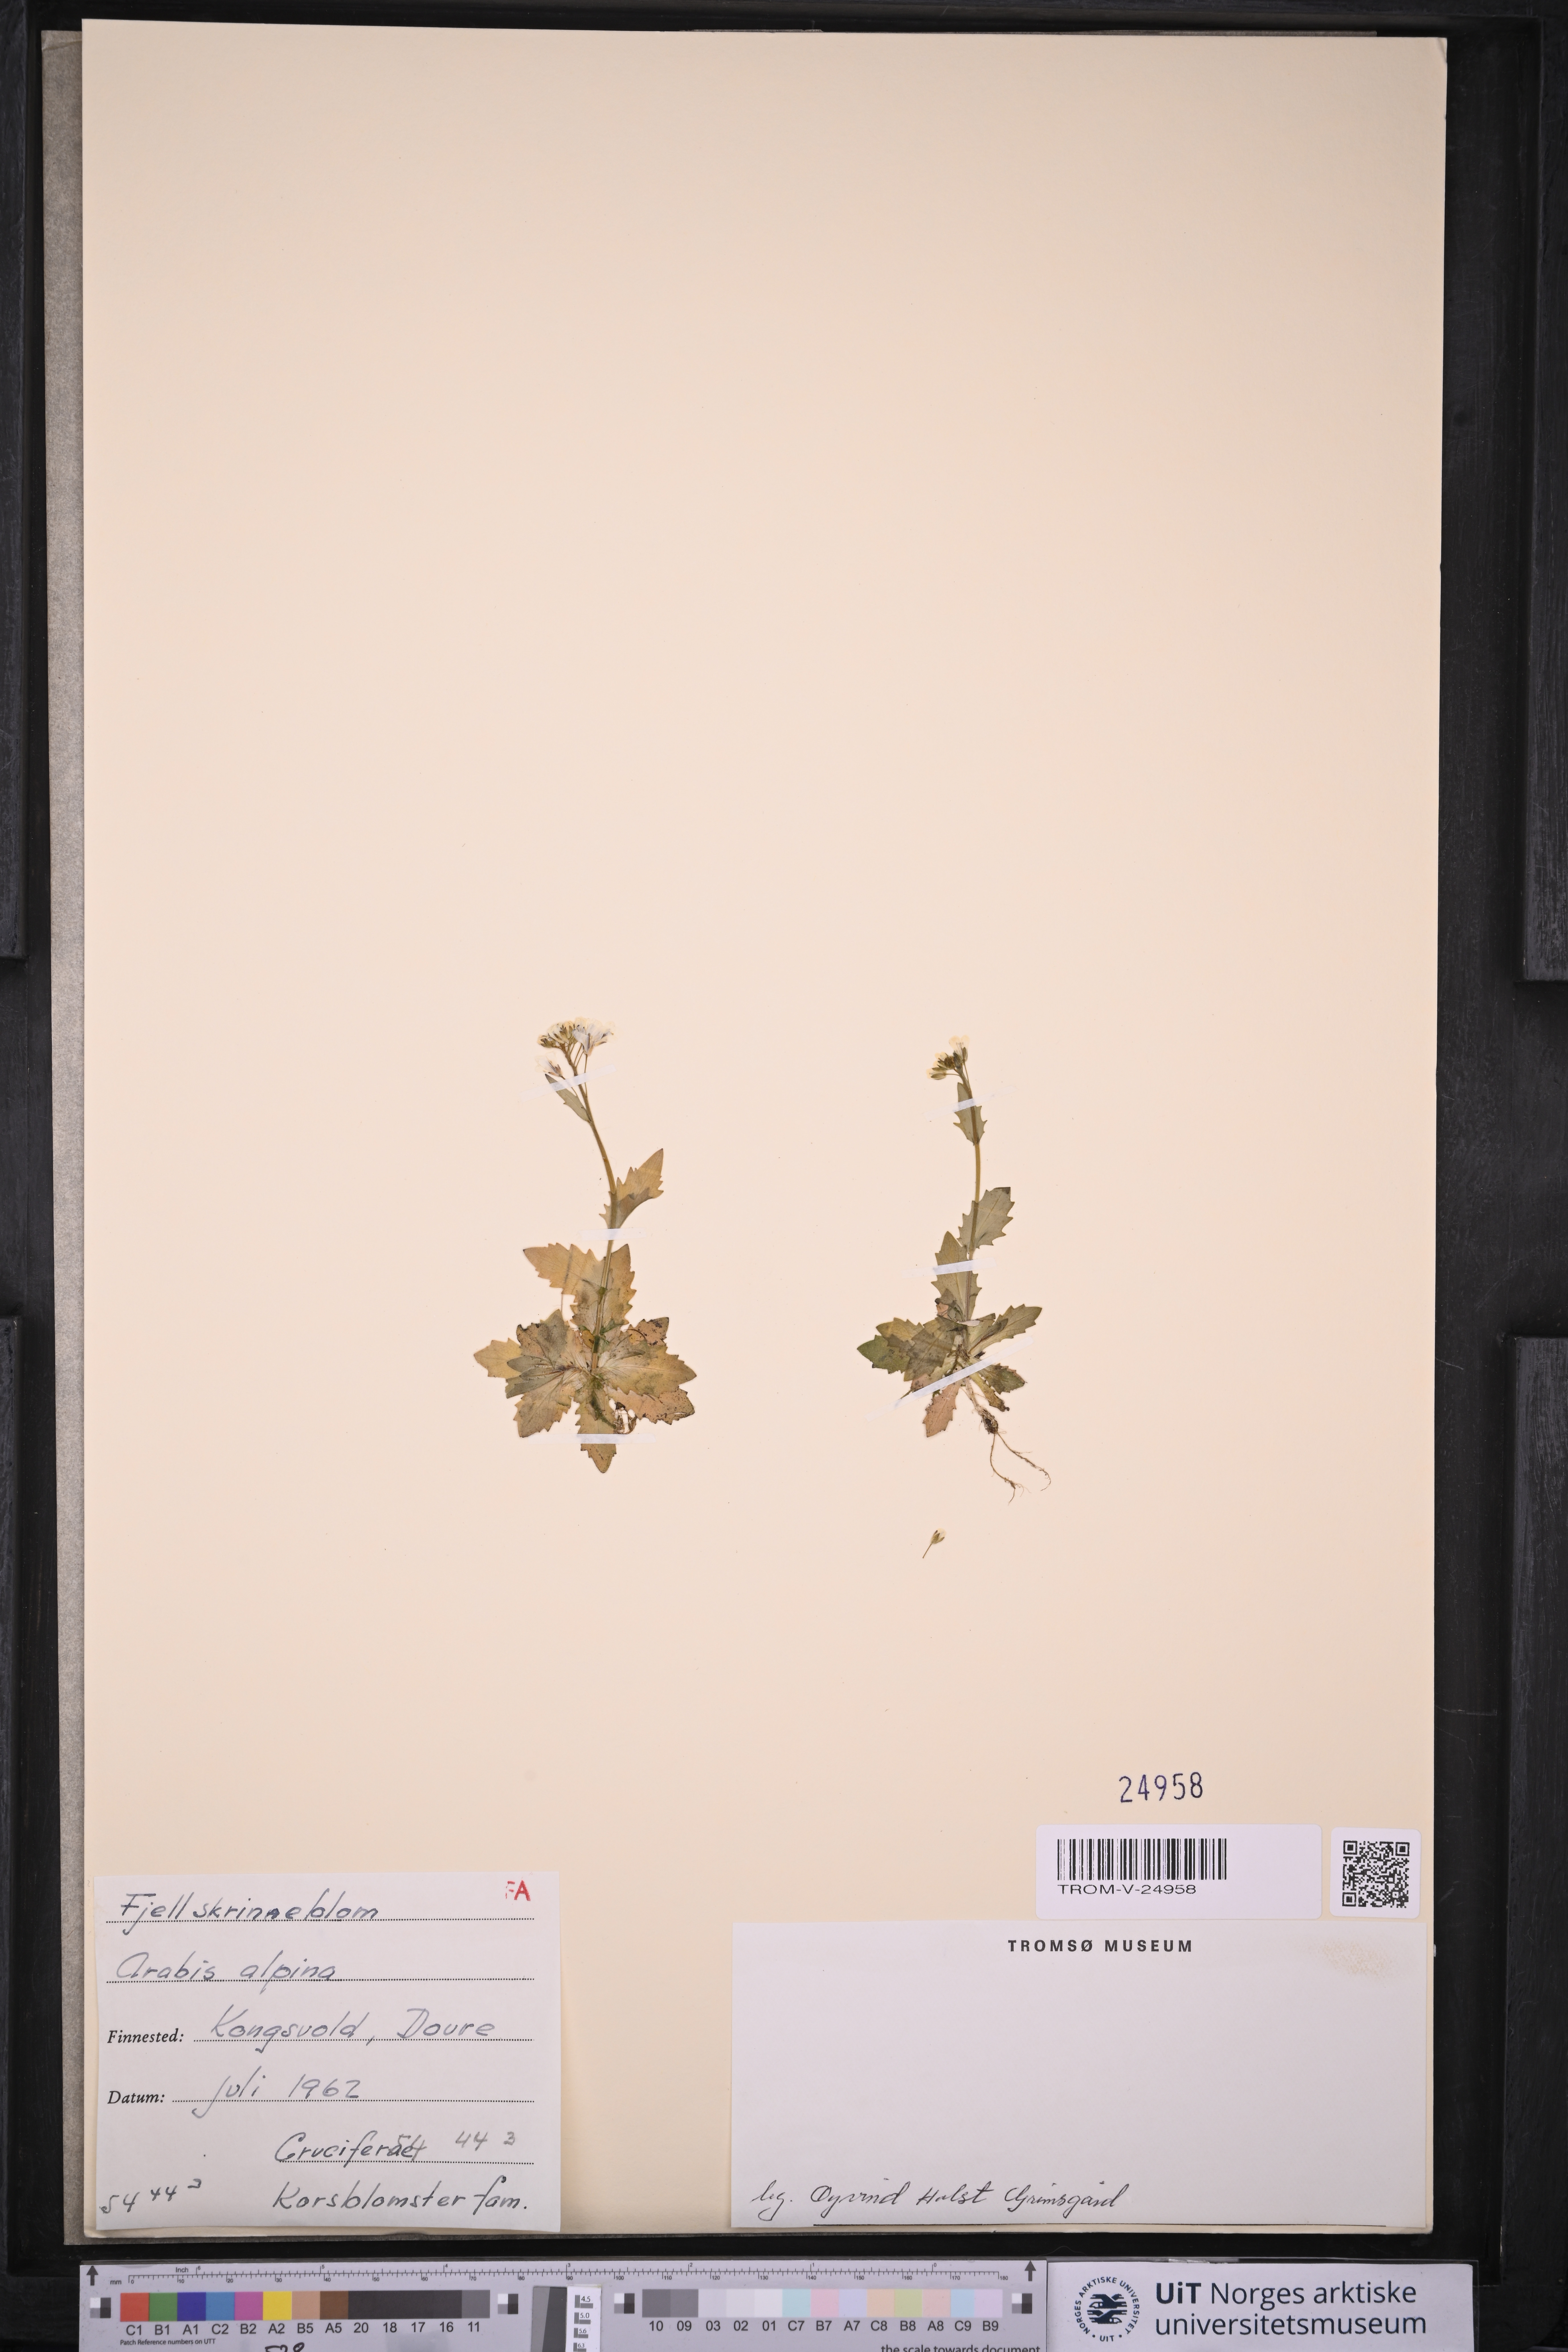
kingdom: Plantae
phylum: Tracheophyta
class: Magnoliopsida
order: Brassicales
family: Brassicaceae
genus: Arabis
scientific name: Arabis alpina
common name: Alpine rock-cress
